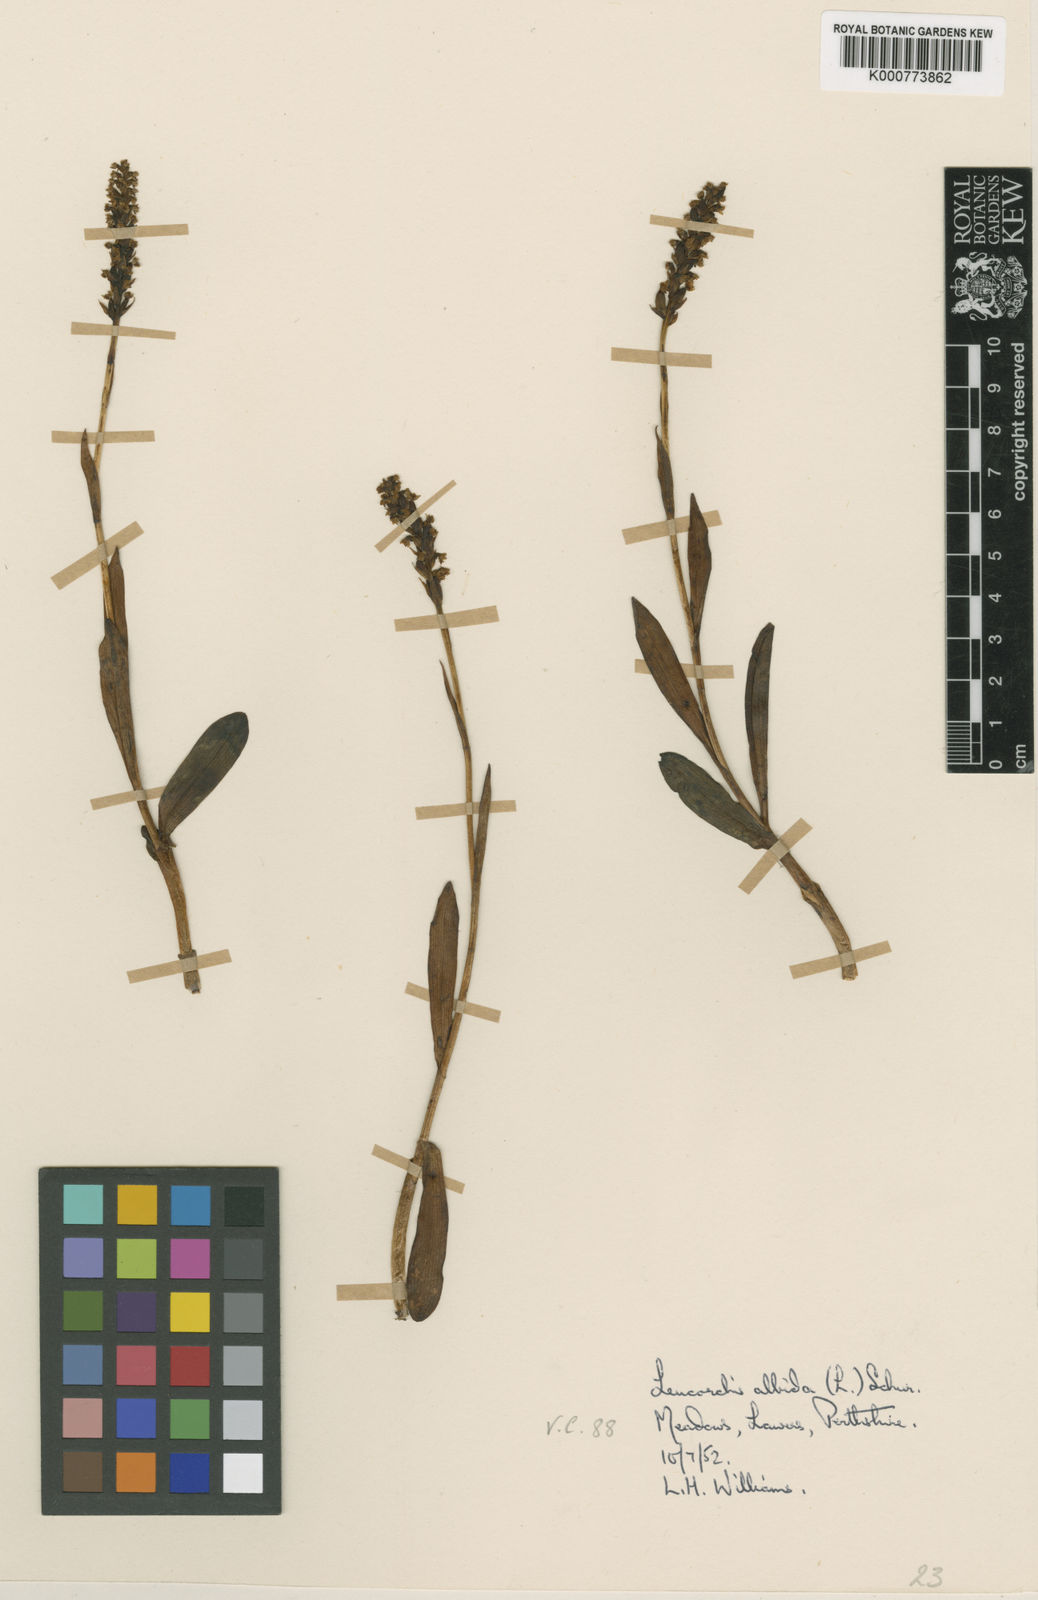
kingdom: Plantae
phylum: Tracheophyta
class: Liliopsida
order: Asparagales
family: Orchidaceae
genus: Pseudorchis
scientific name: Pseudorchis
